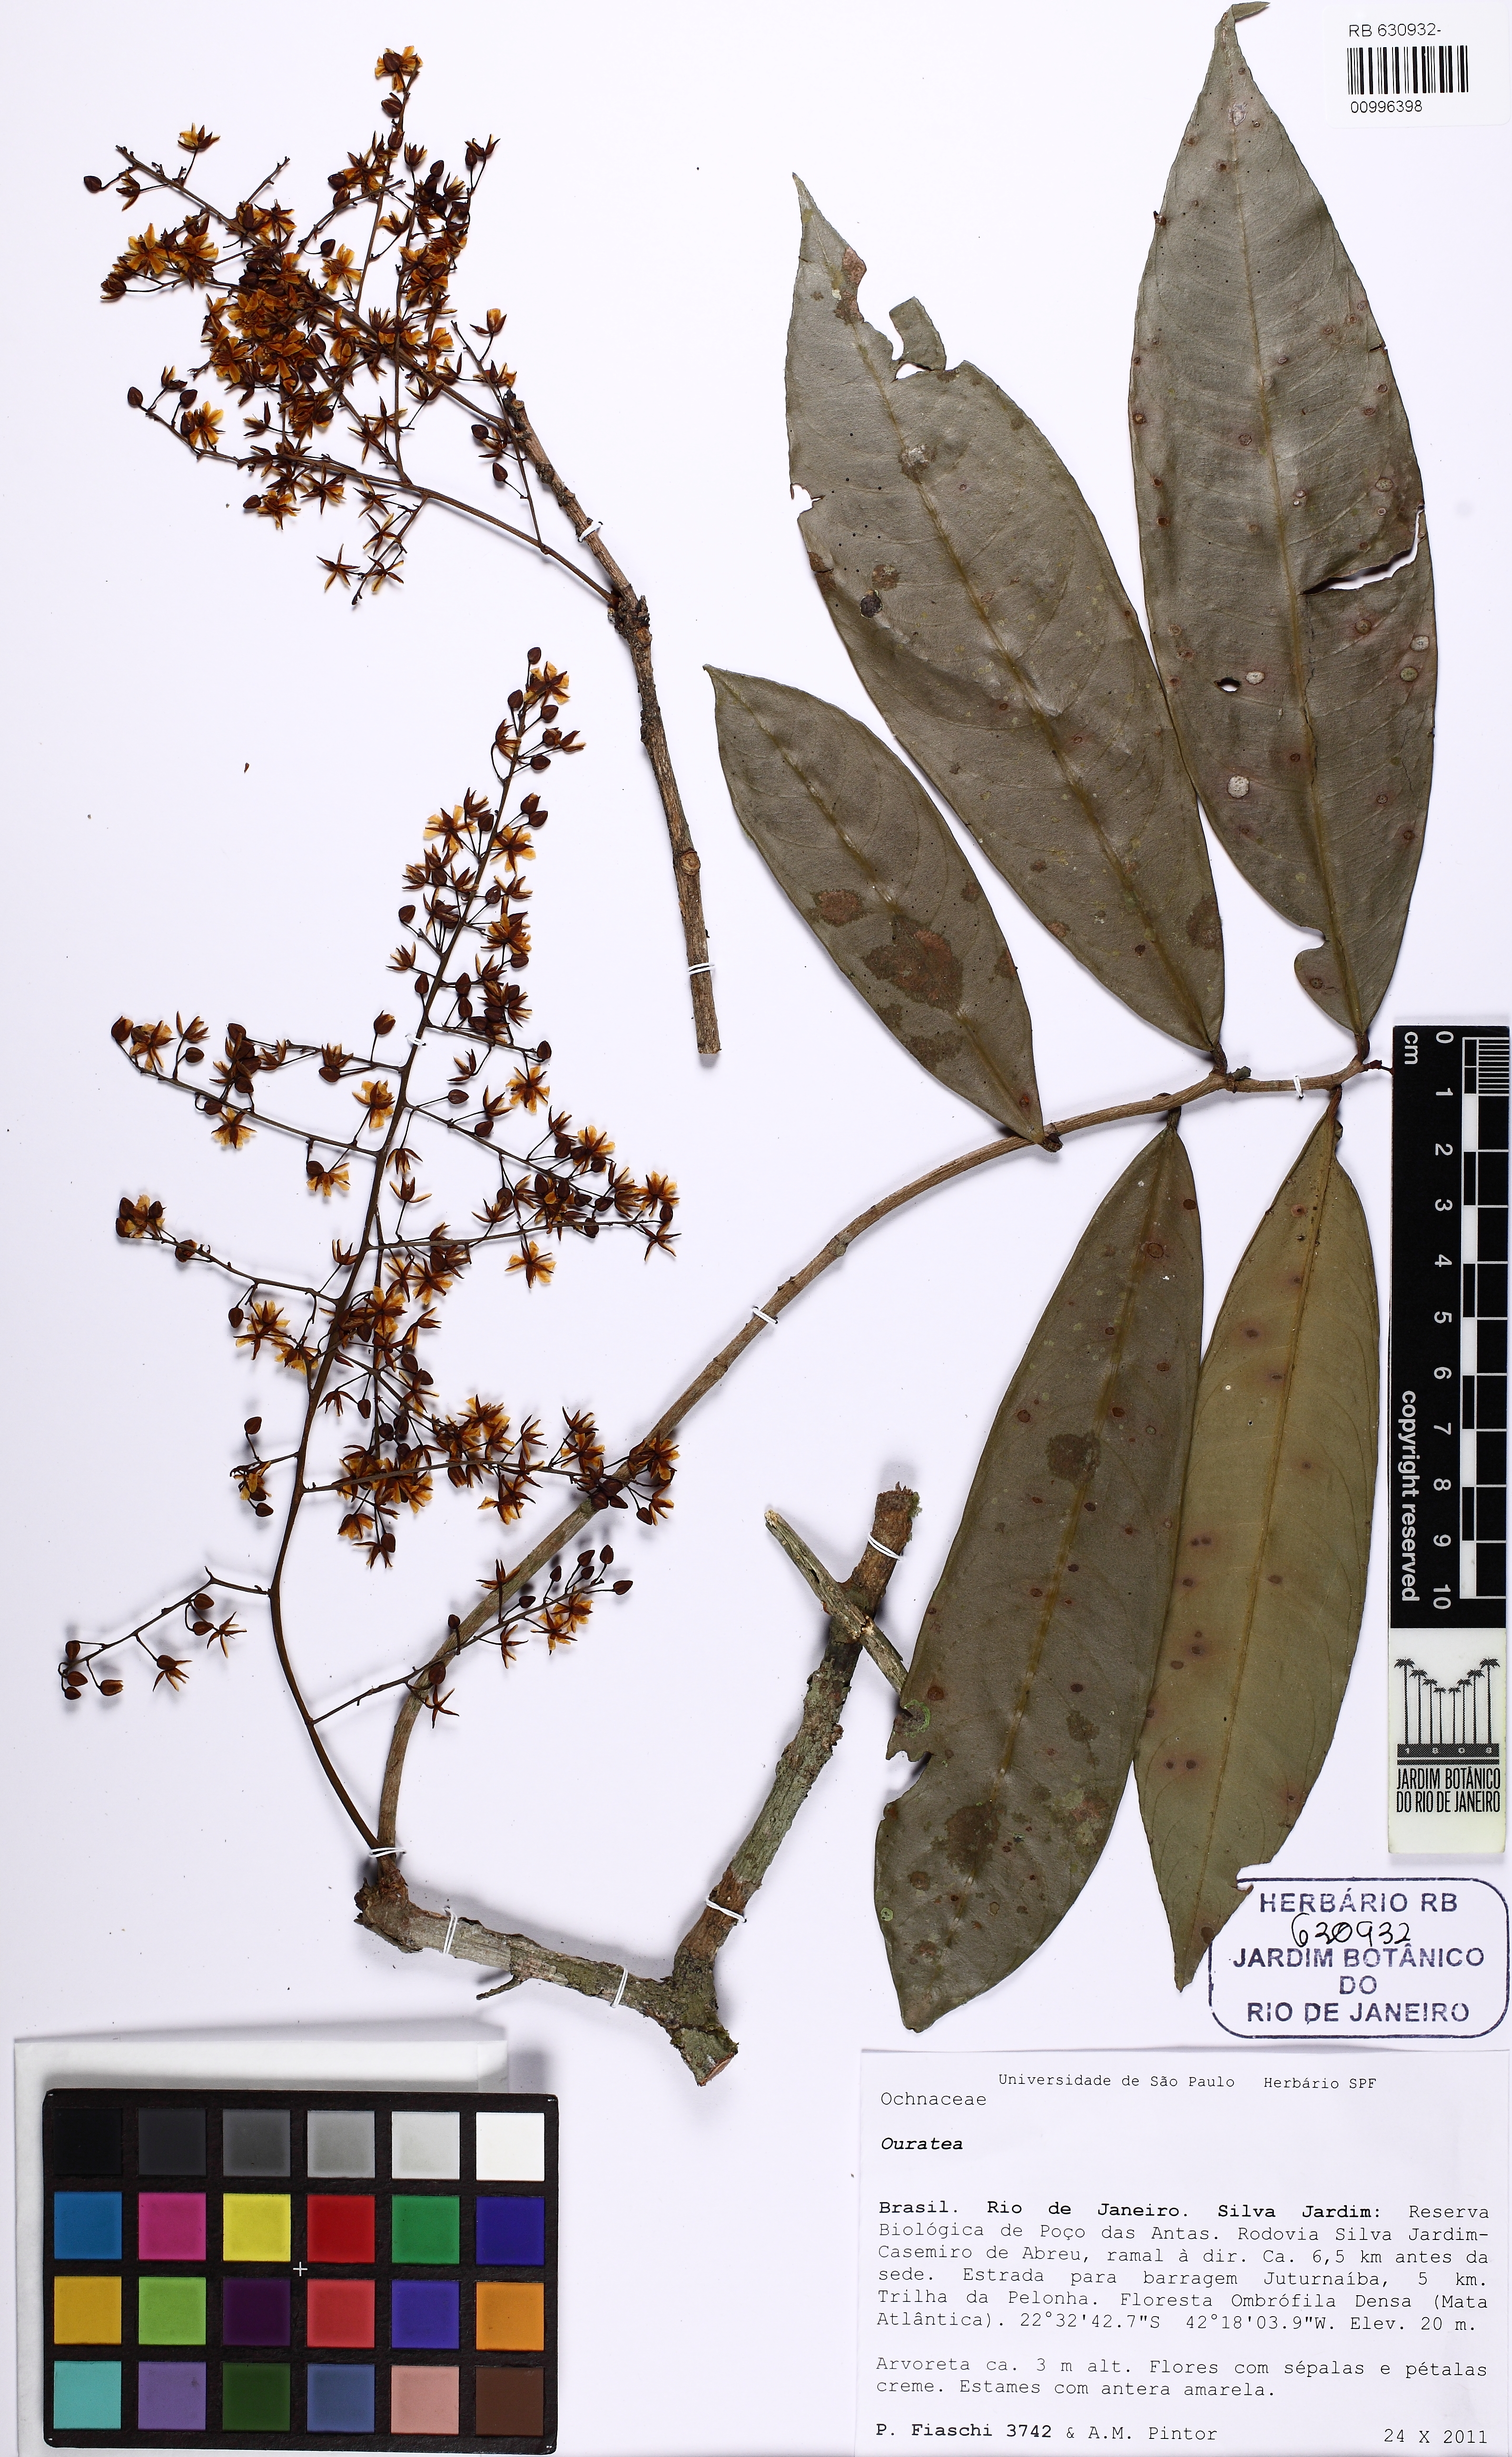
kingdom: Plantae
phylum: Tracheophyta
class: Magnoliopsida
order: Malpighiales
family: Ochnaceae
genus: Ouratea
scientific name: Ouratea
